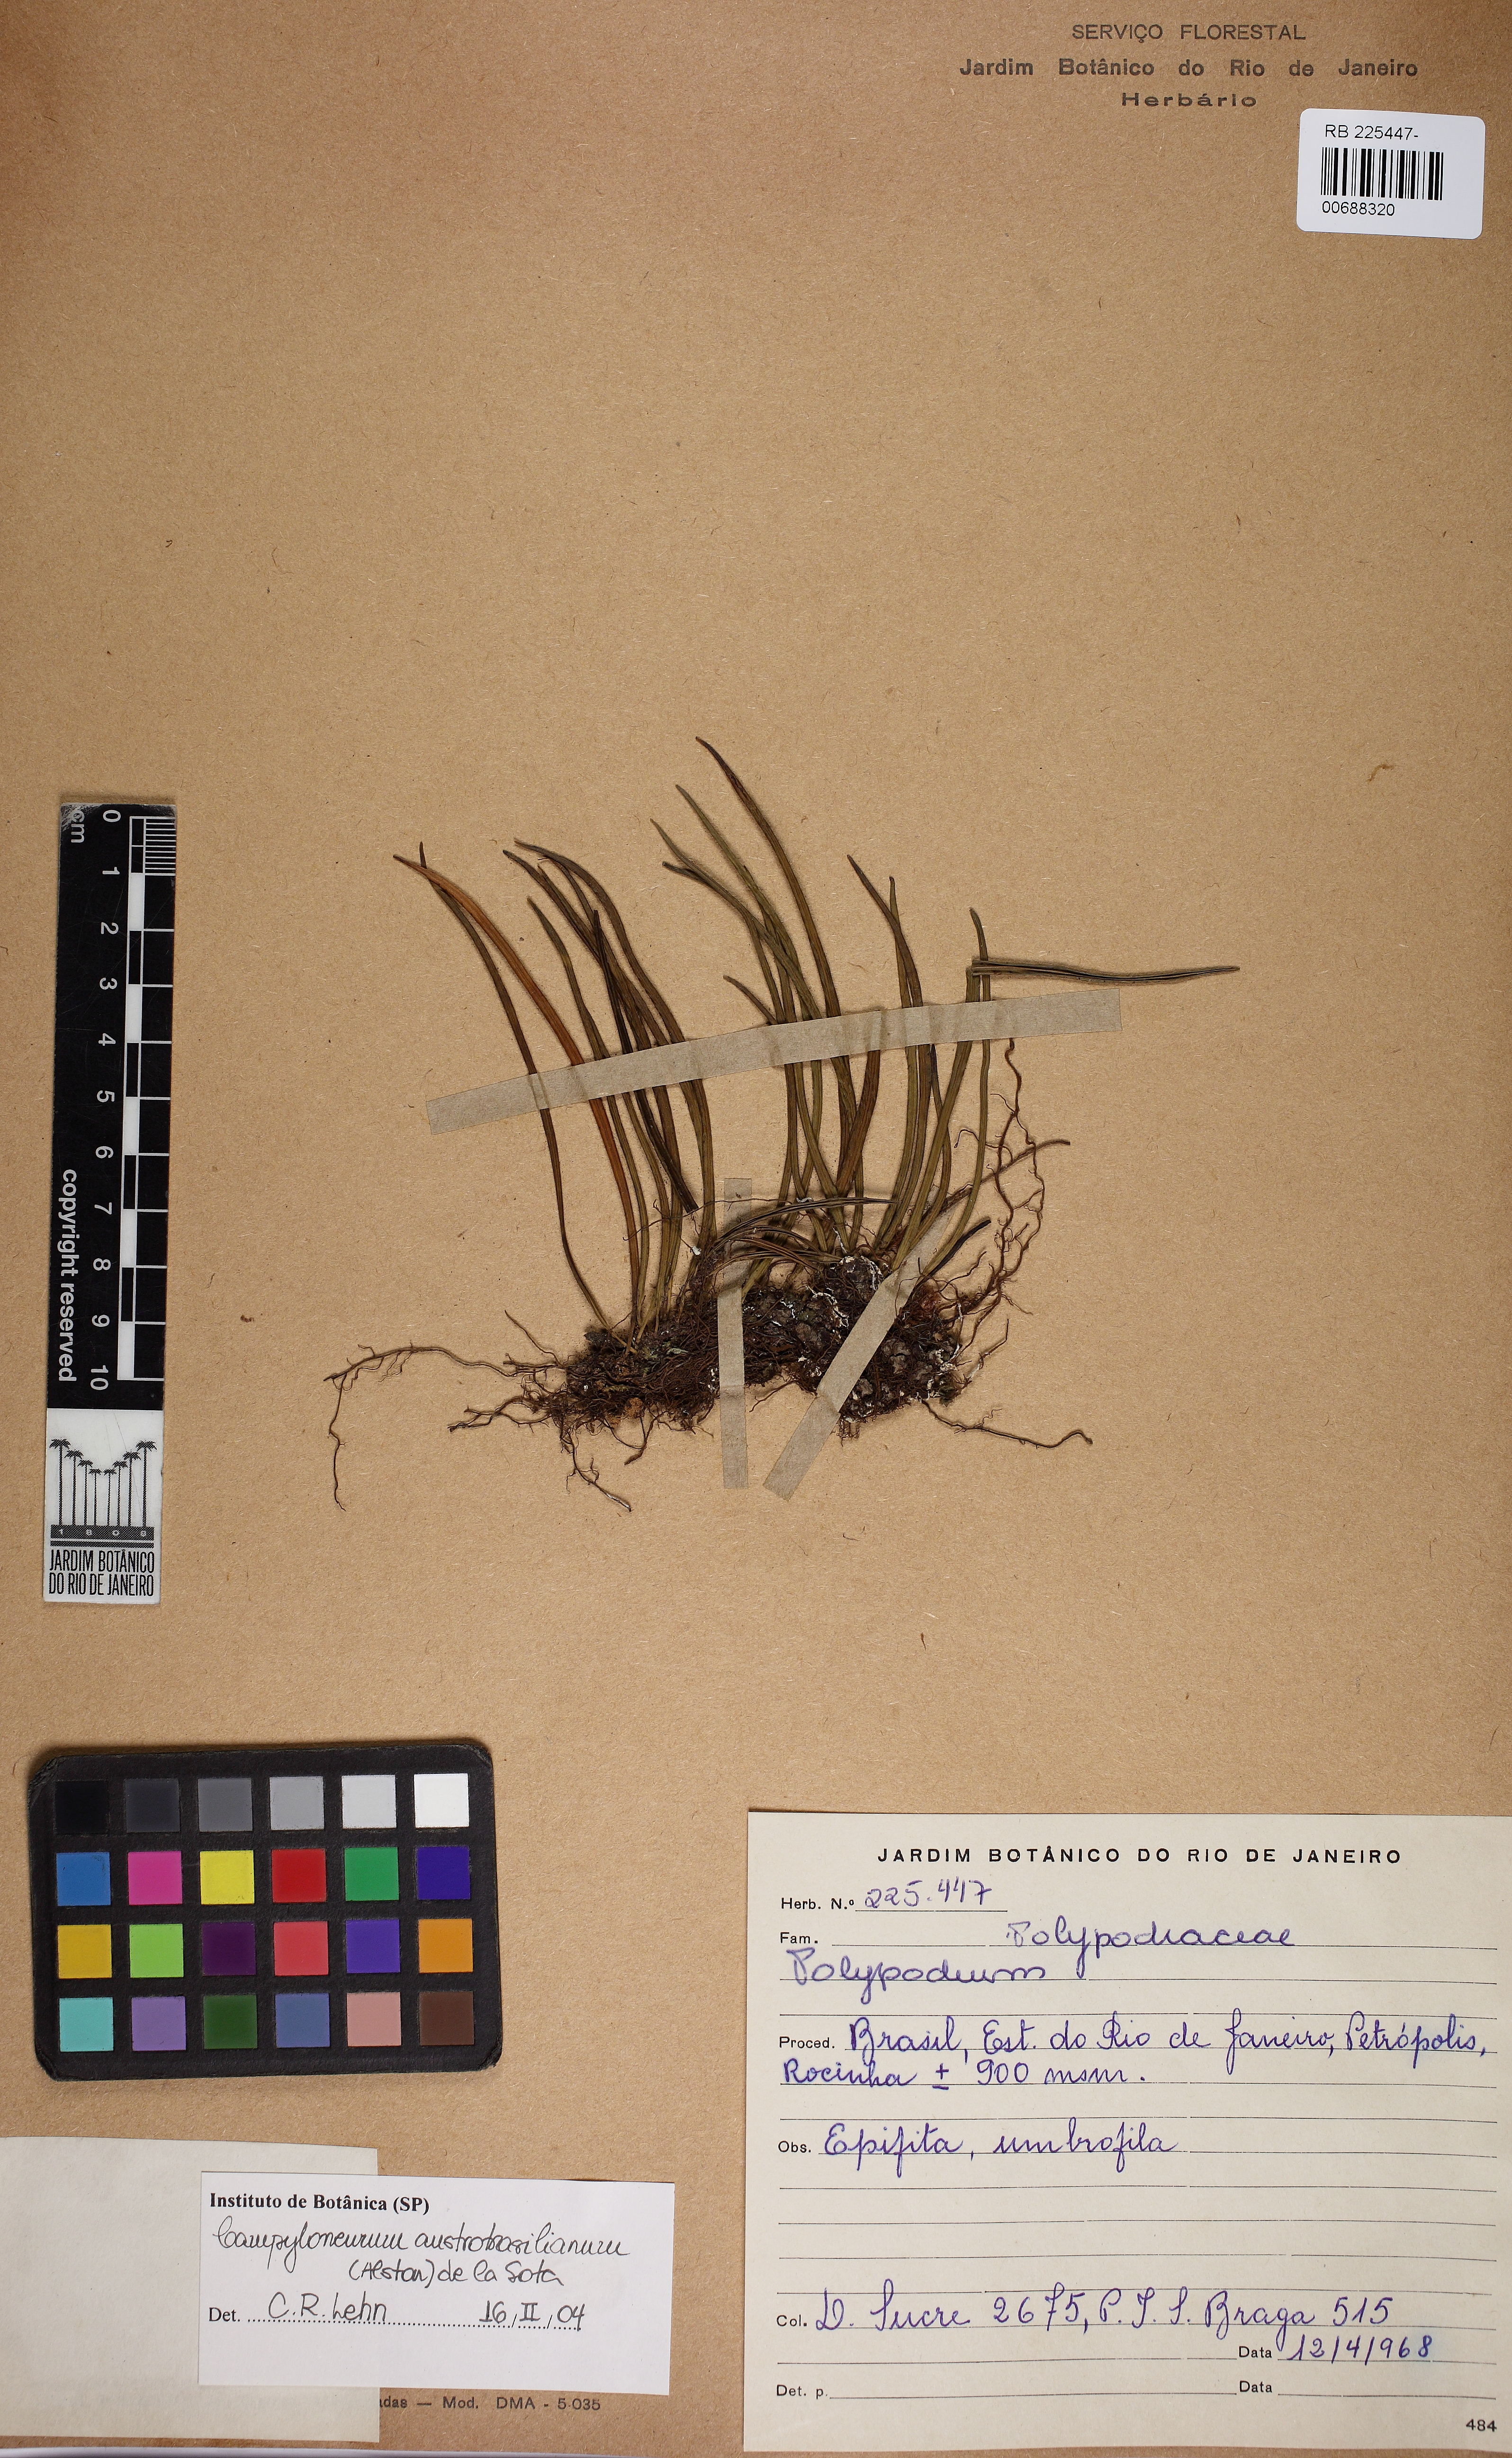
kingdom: Plantae
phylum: Tracheophyta
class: Polypodiopsida
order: Polypodiales
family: Polypodiaceae
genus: Campyloneurum
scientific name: Campyloneurum austrobrasilianum
